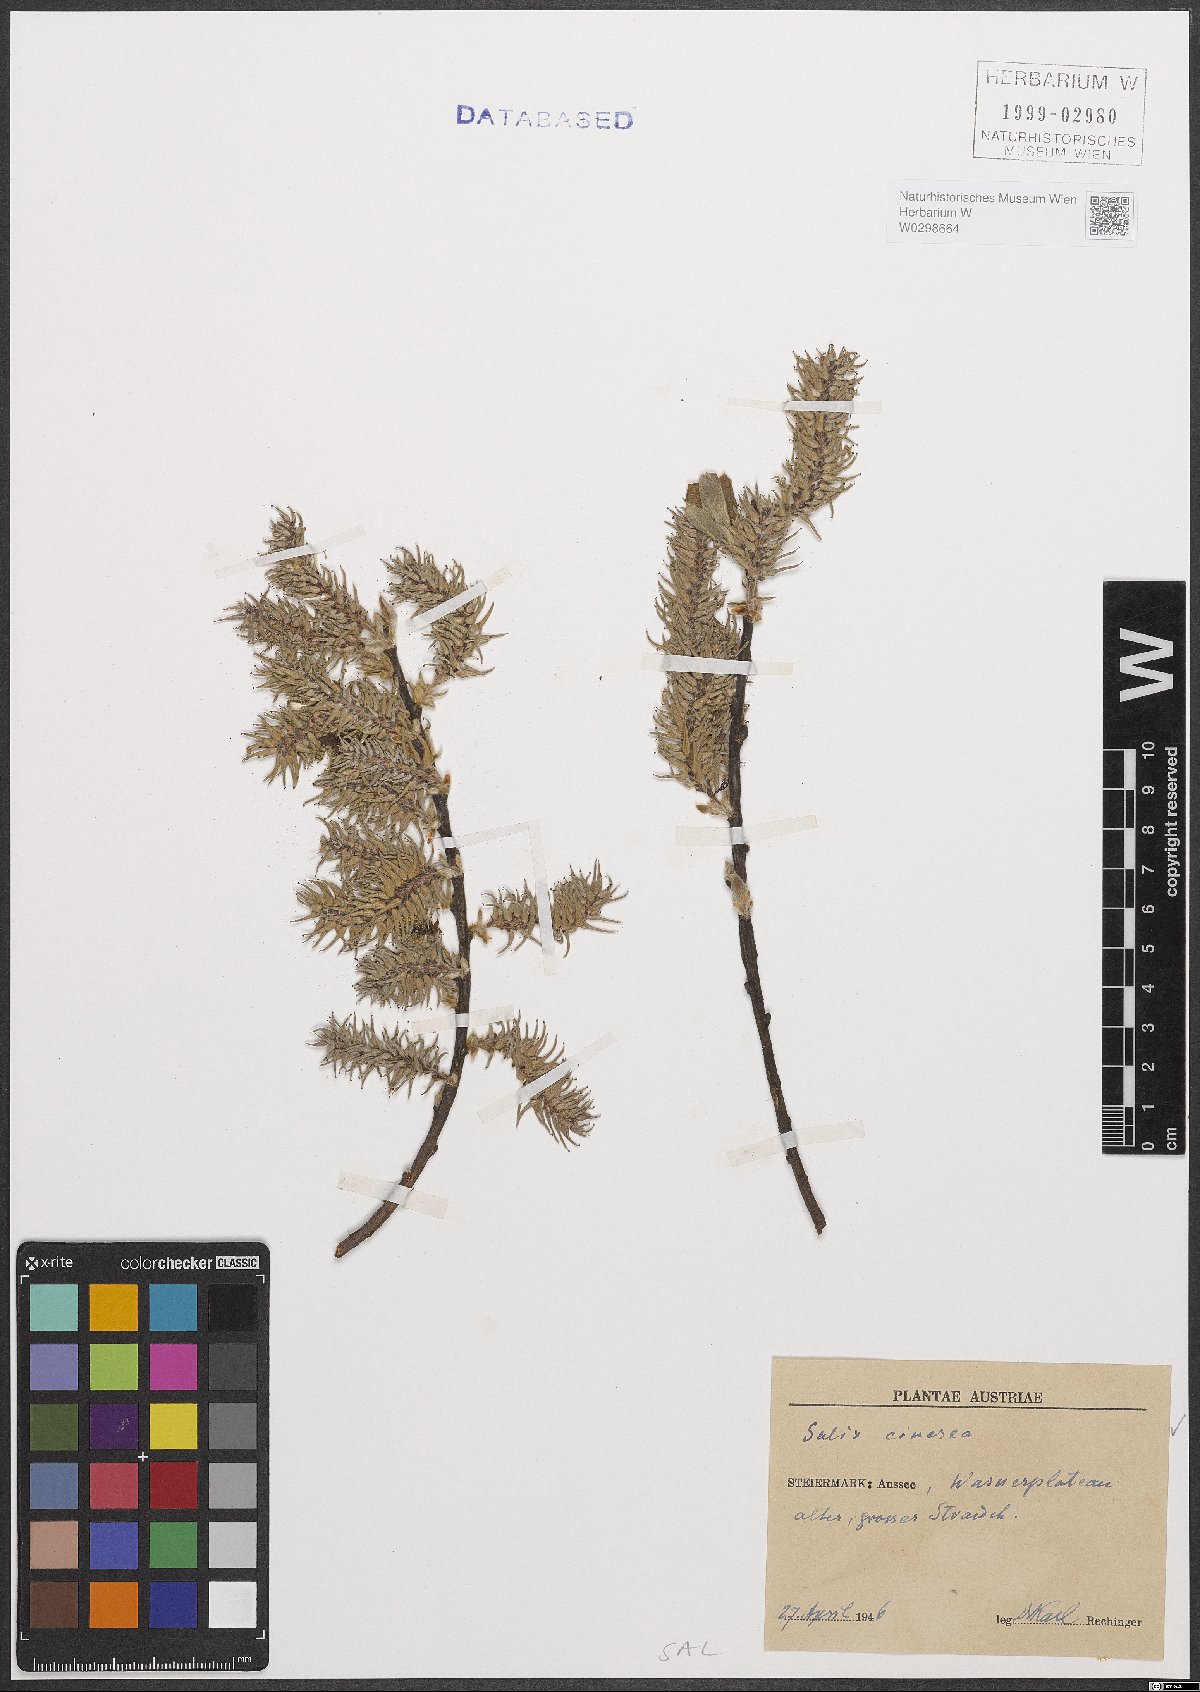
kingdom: Plantae
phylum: Tracheophyta
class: Magnoliopsida
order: Malpighiales
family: Salicaceae
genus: Salix
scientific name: Salix cinerea
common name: Common sallow
